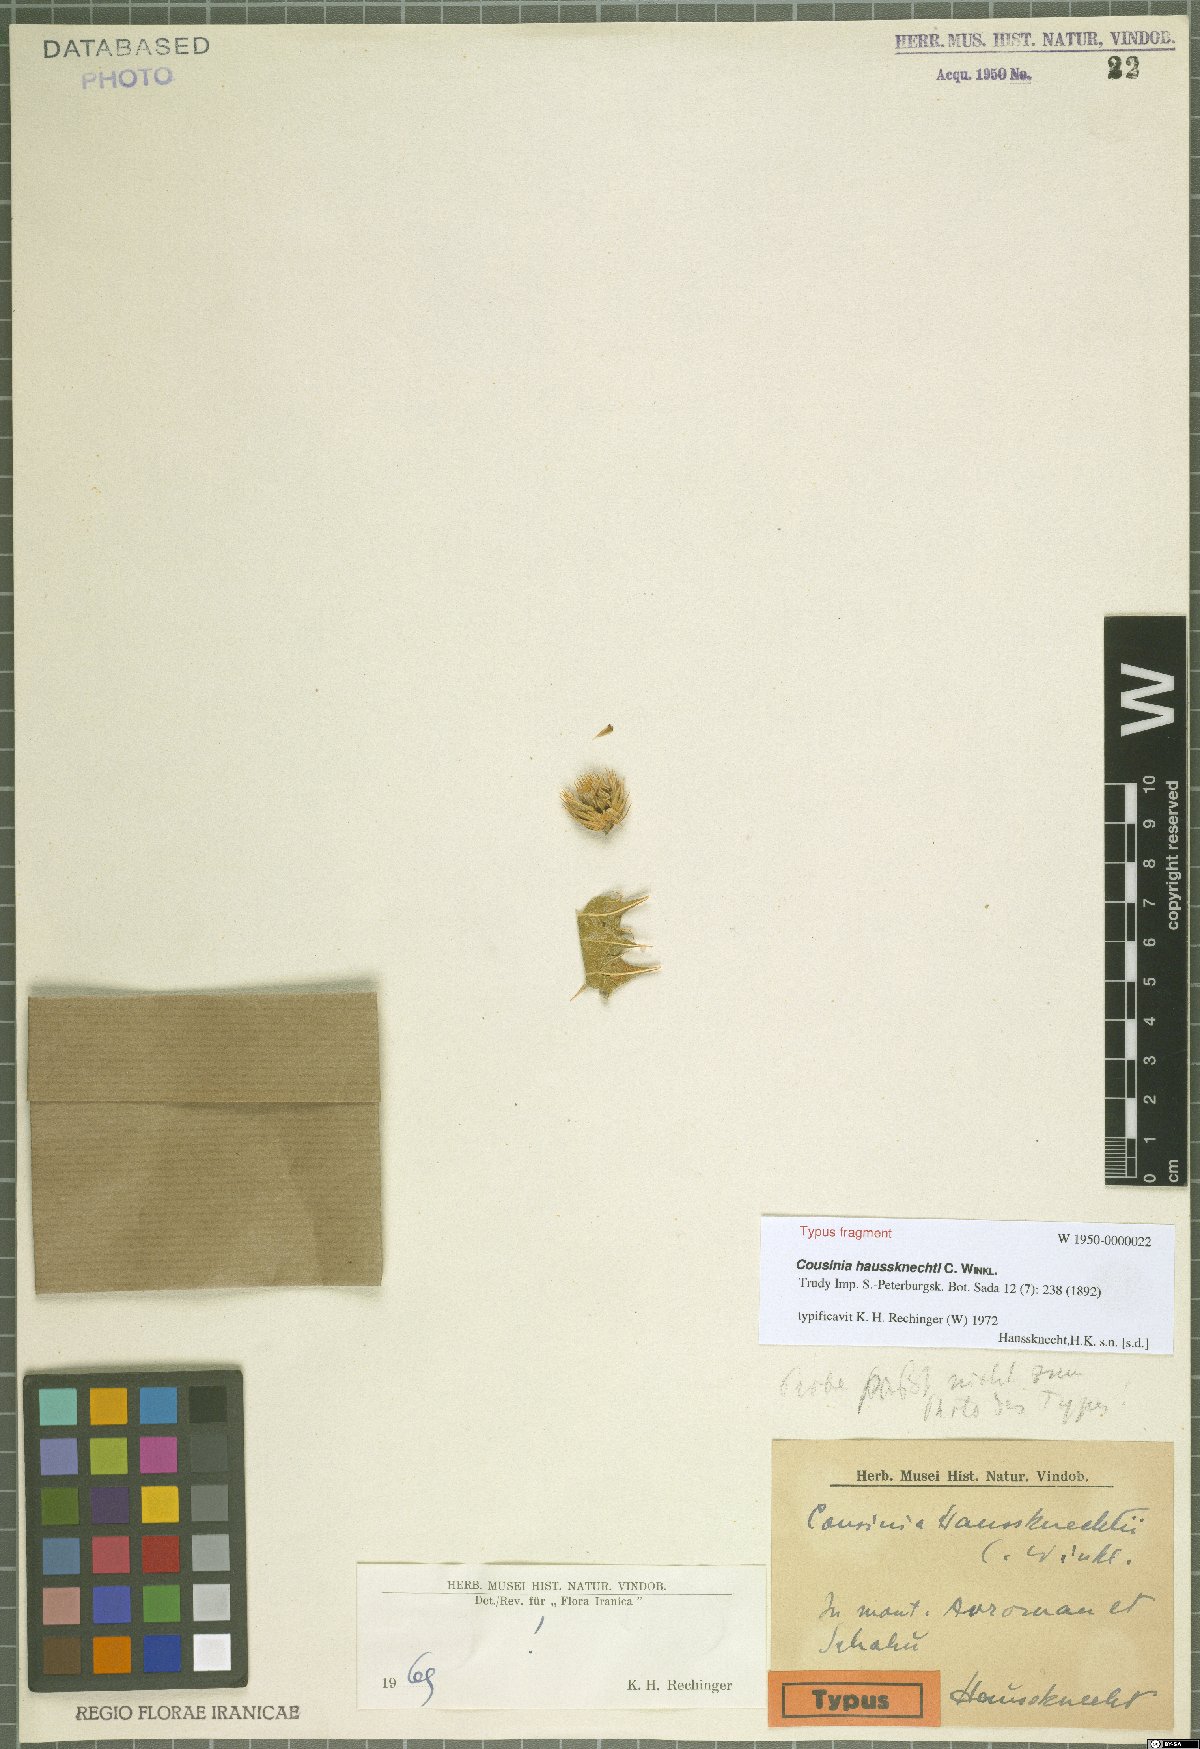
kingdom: Plantae
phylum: Tracheophyta
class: Magnoliopsida
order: Asterales
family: Asteraceae
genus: Cousinia
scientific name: Cousinia haussknechtii
